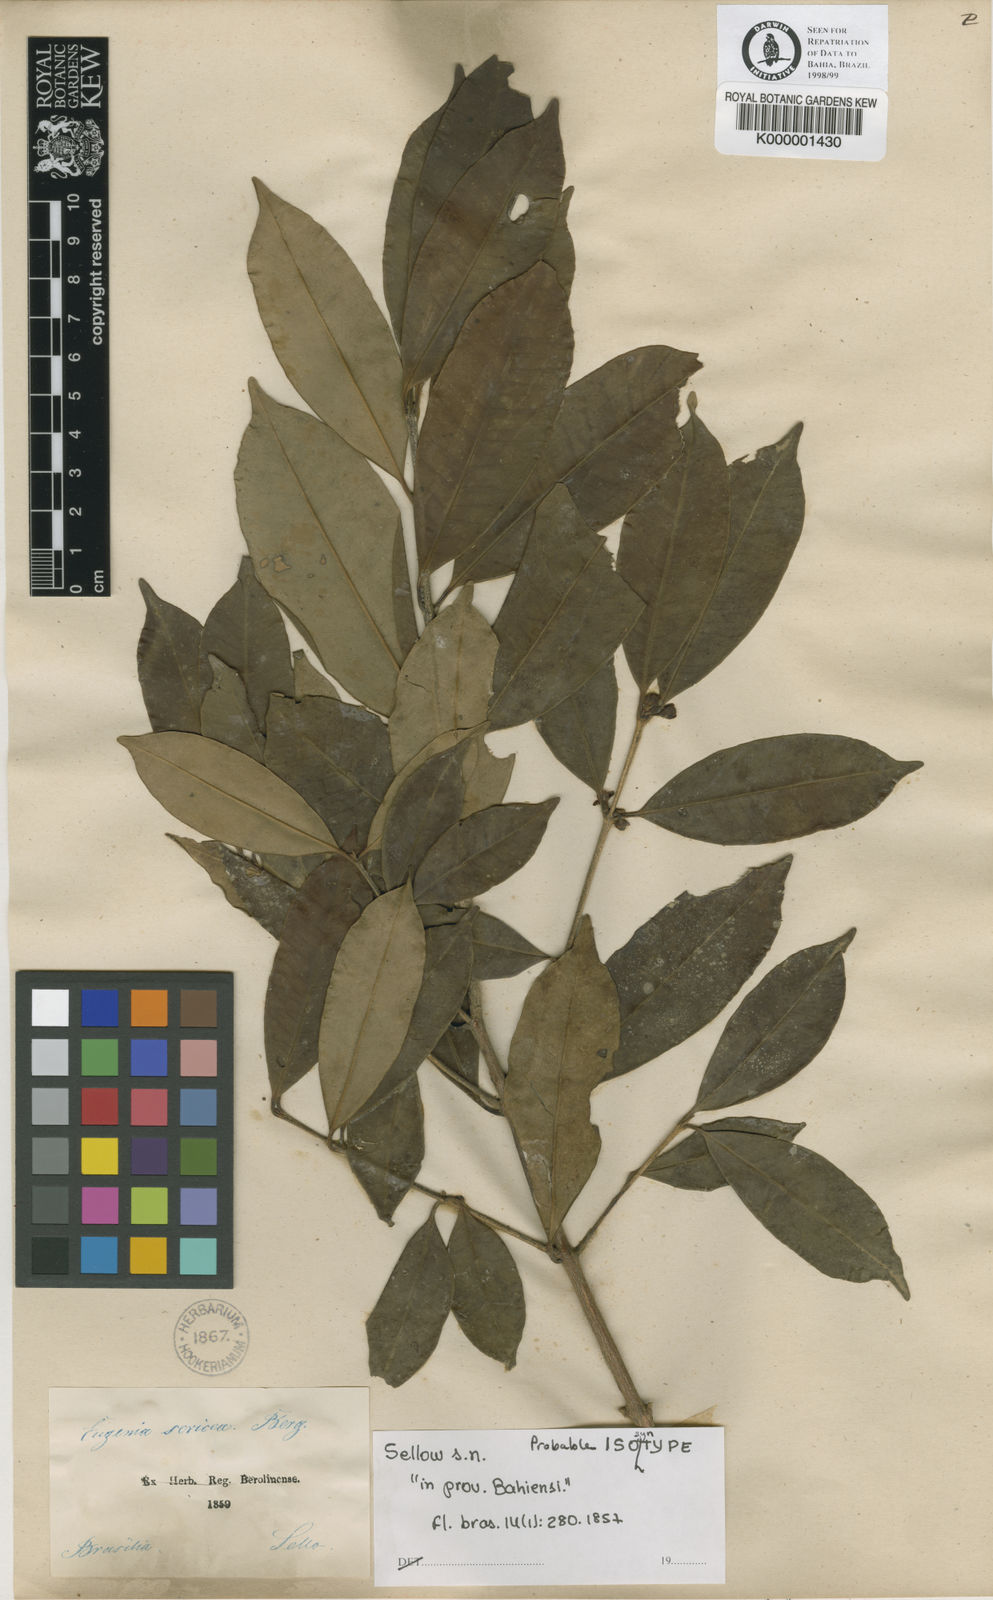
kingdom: Plantae
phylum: Tracheophyta
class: Magnoliopsida
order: Myrtales
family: Myrtaceae
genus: Eugenia
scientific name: Eugenia pisiformis
